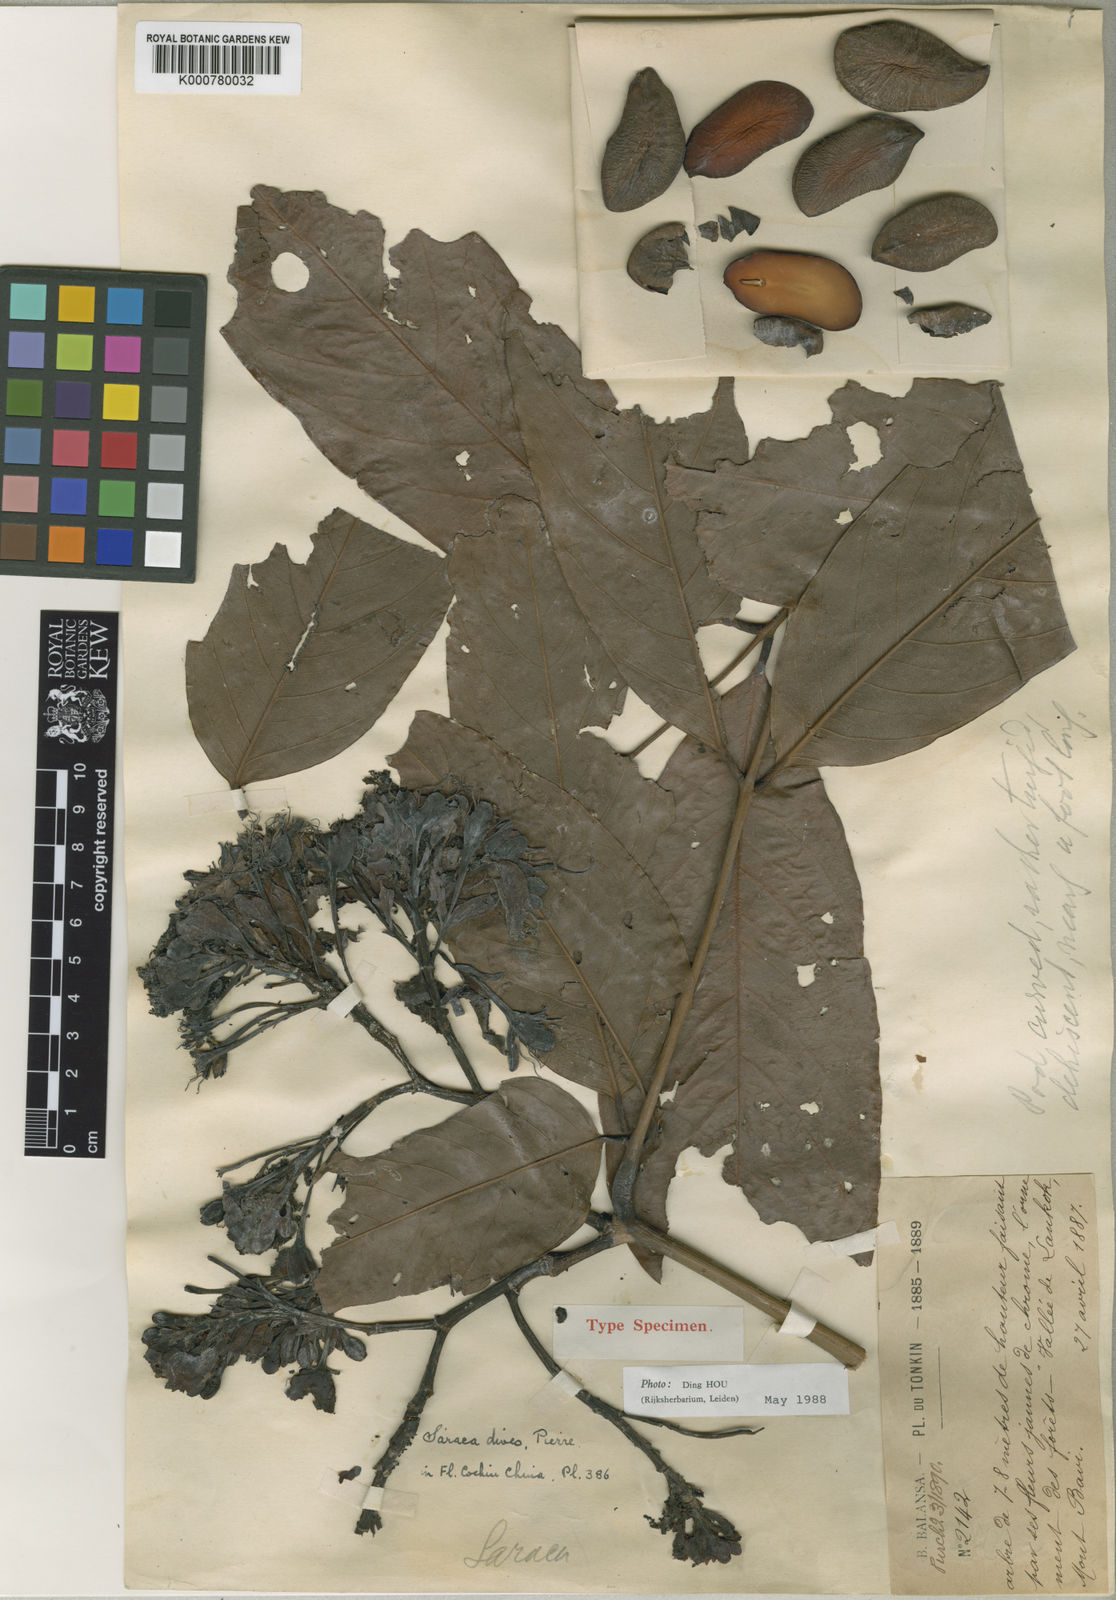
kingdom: Plantae
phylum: Tracheophyta
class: Magnoliopsida
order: Fabales
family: Fabaceae
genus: Saraca
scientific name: Saraca dives
